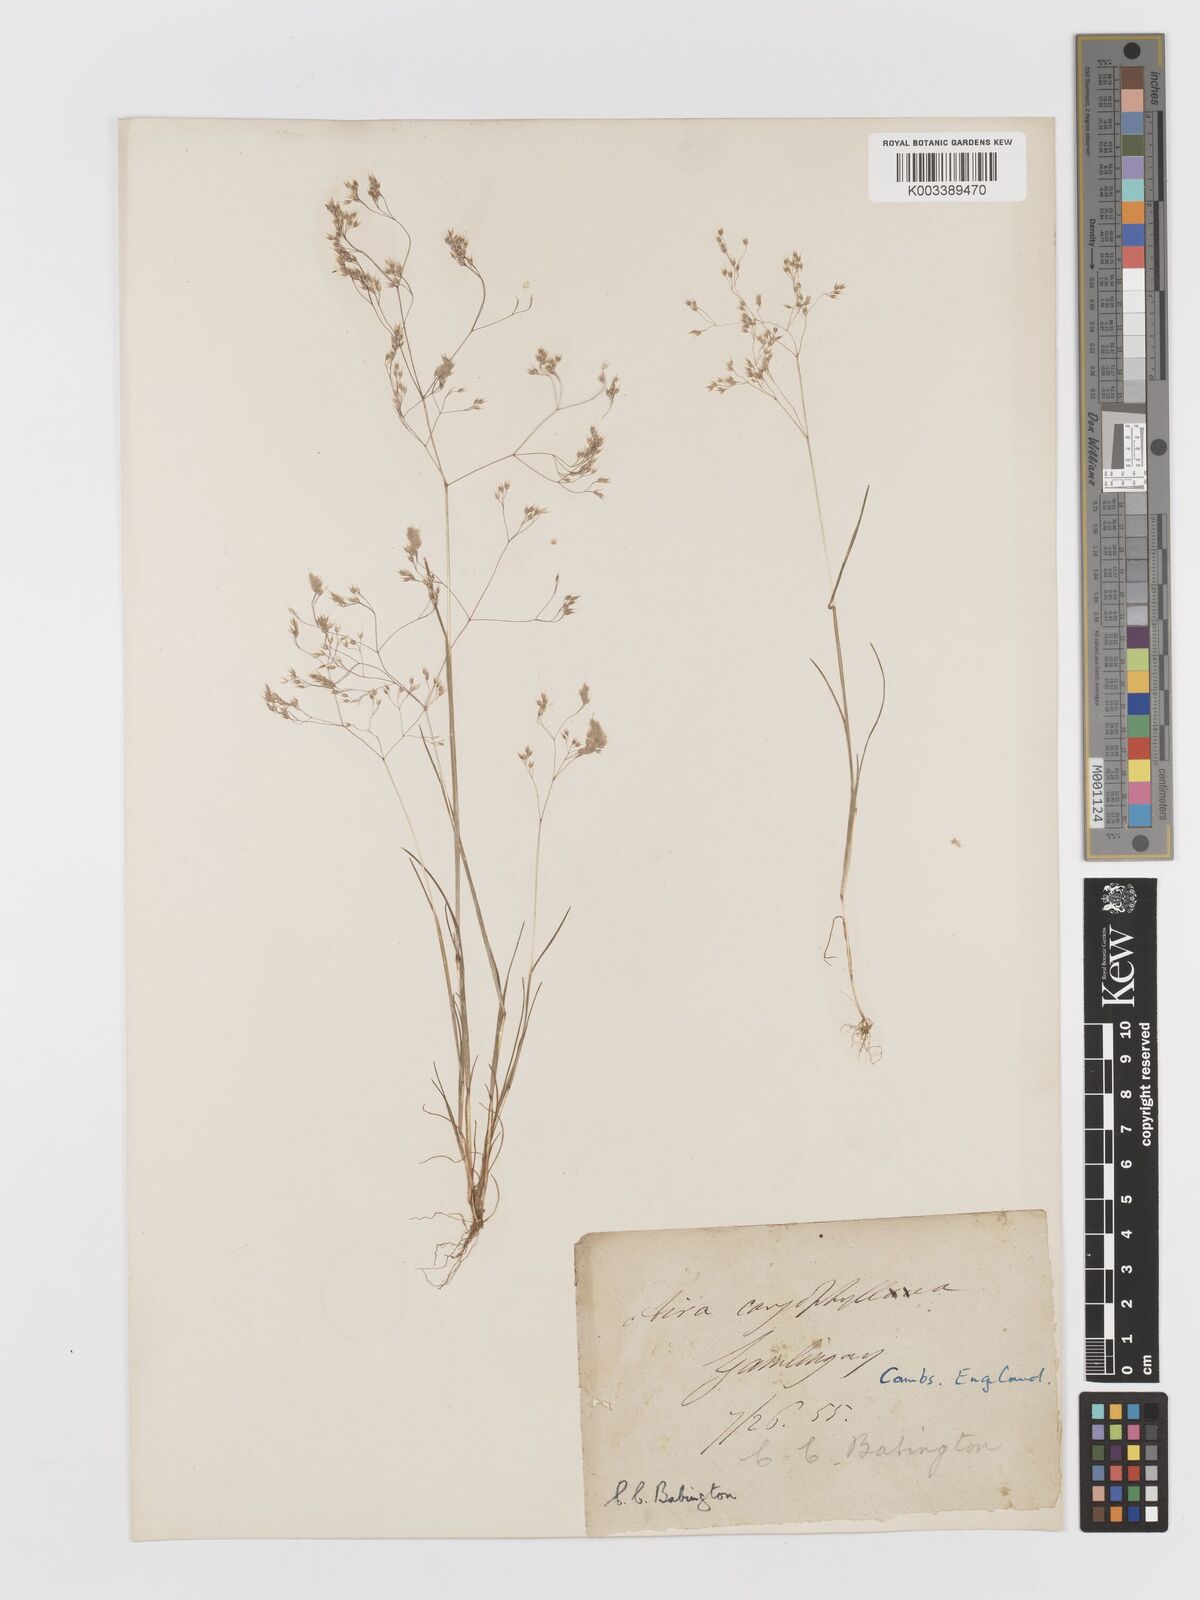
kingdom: Plantae
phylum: Tracheophyta
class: Liliopsida
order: Poales
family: Poaceae
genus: Aira
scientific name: Aira caryophyllea
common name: Silver hairgrass
